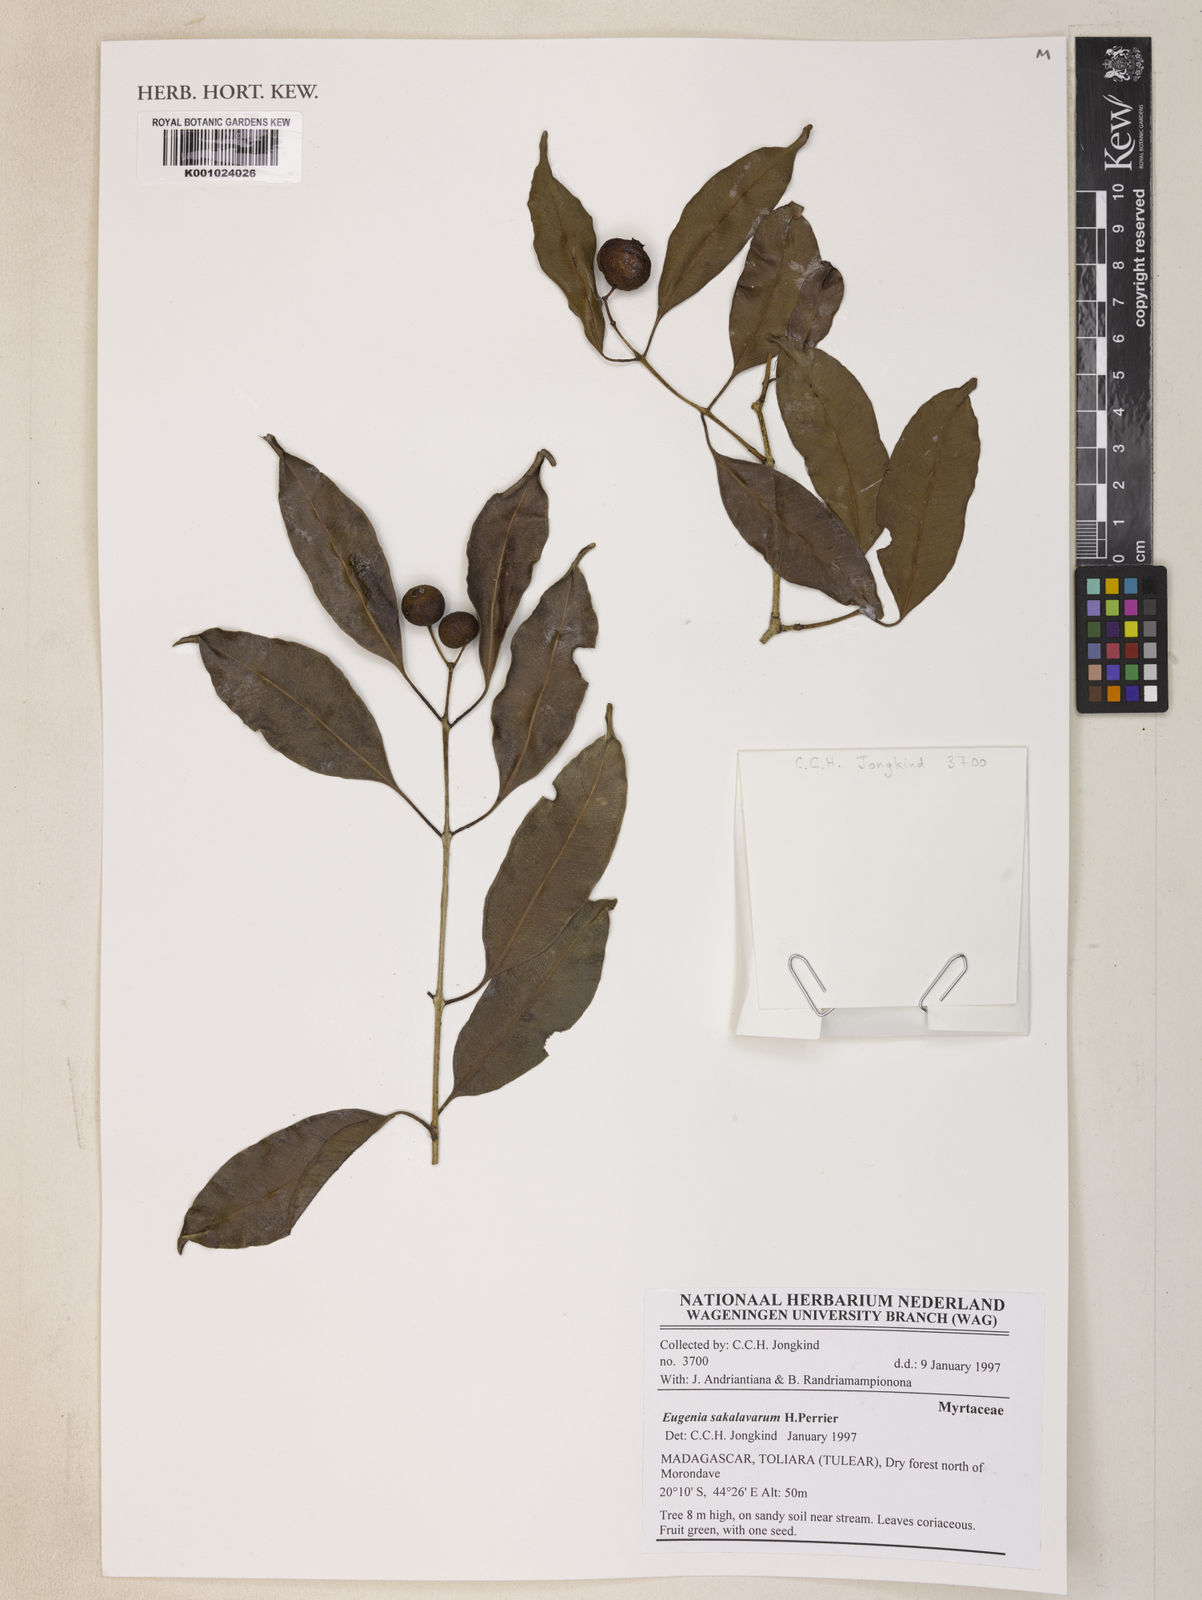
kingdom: Plantae
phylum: Tracheophyta
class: Magnoliopsida
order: Myrtales
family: Myrtaceae
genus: Syzygium
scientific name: Syzygium sakalavarum
